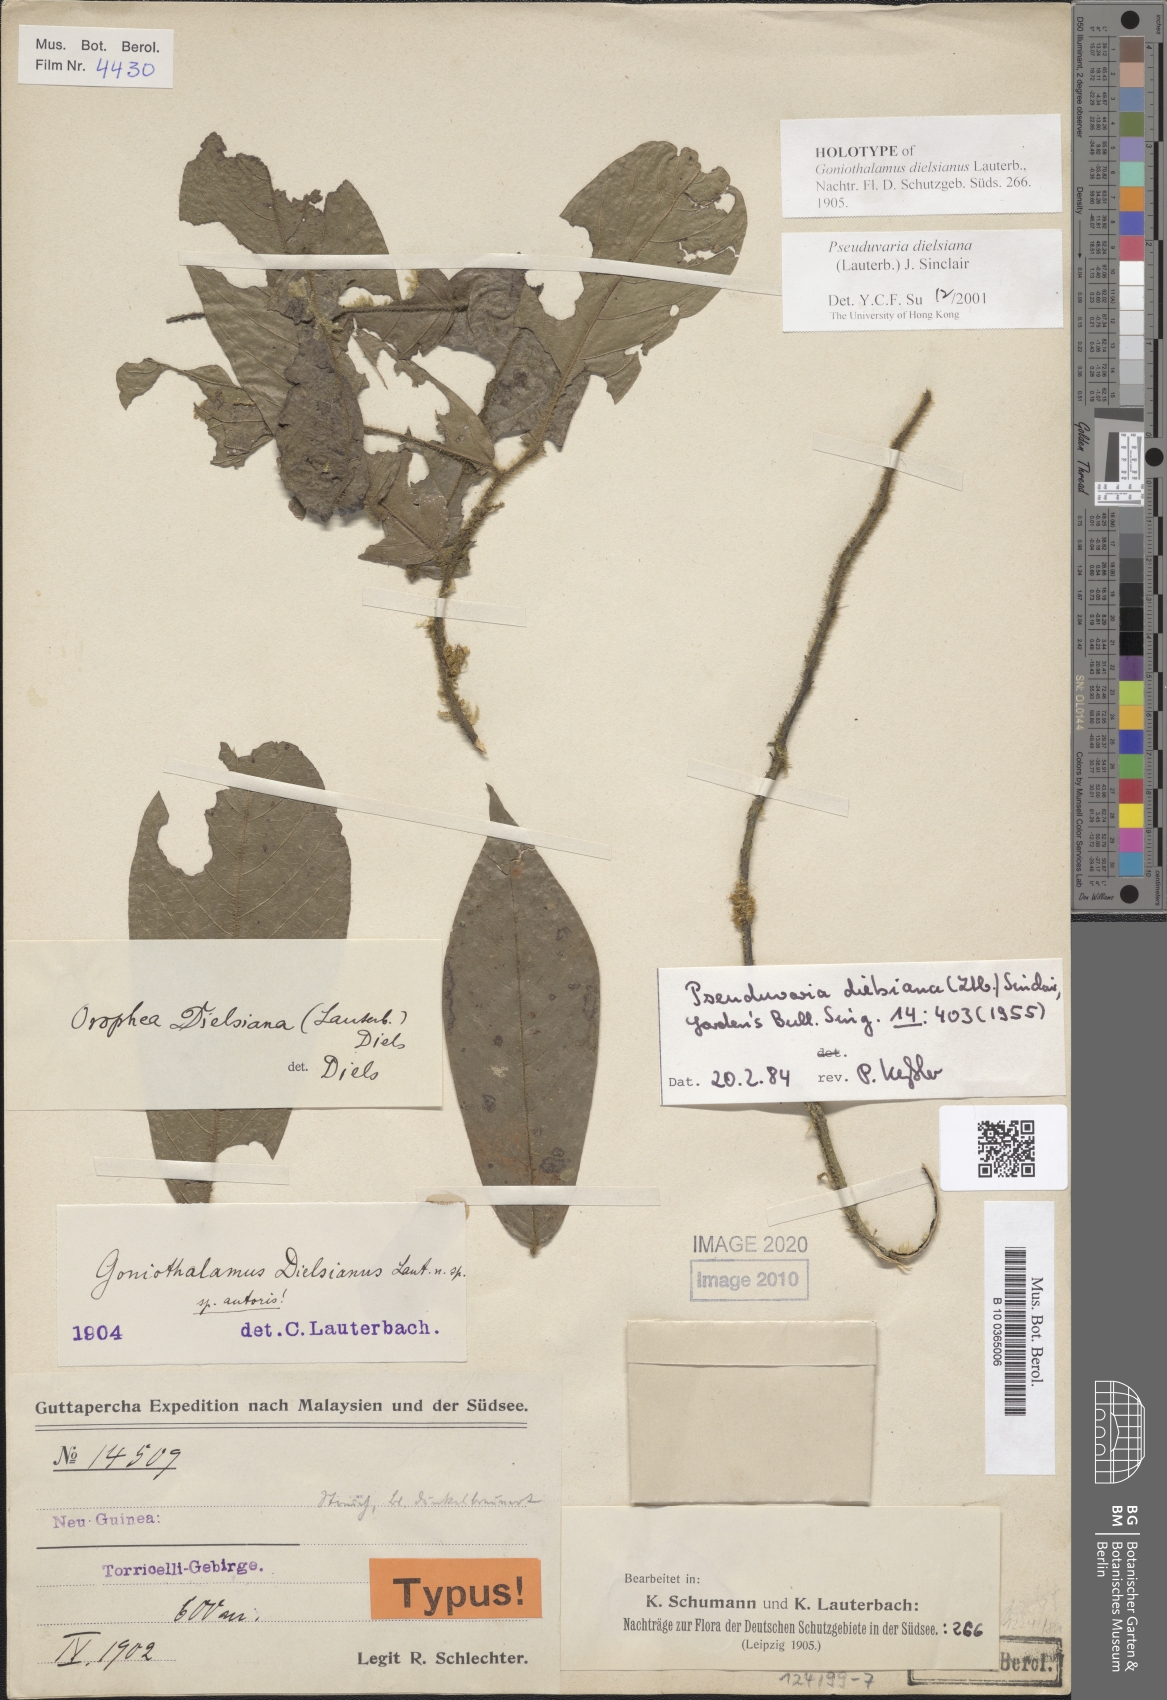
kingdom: Plantae
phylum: Tracheophyta
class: Magnoliopsida
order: Magnoliales
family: Annonaceae
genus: Pseuduvaria
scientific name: Pseuduvaria dielsiana
